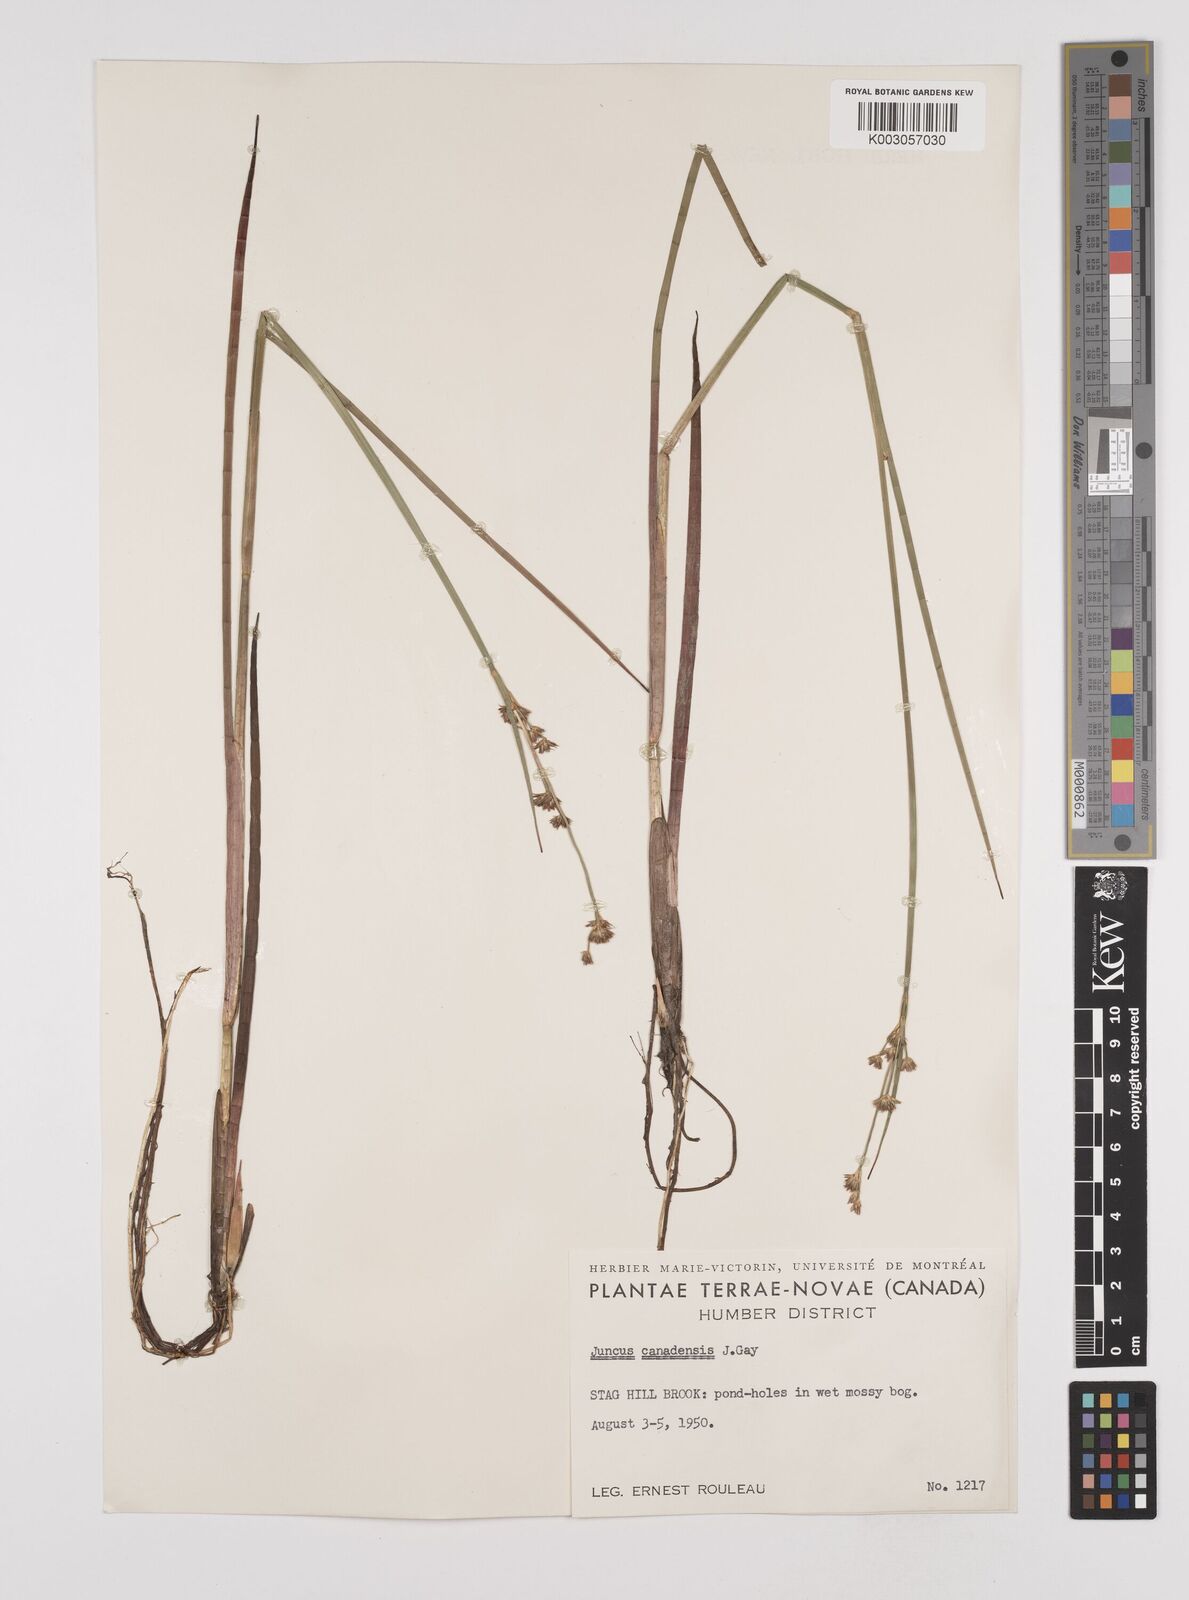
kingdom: Plantae
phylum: Tracheophyta
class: Liliopsida
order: Poales
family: Juncaceae
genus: Juncus
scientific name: Juncus canadensis
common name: Canada rush
